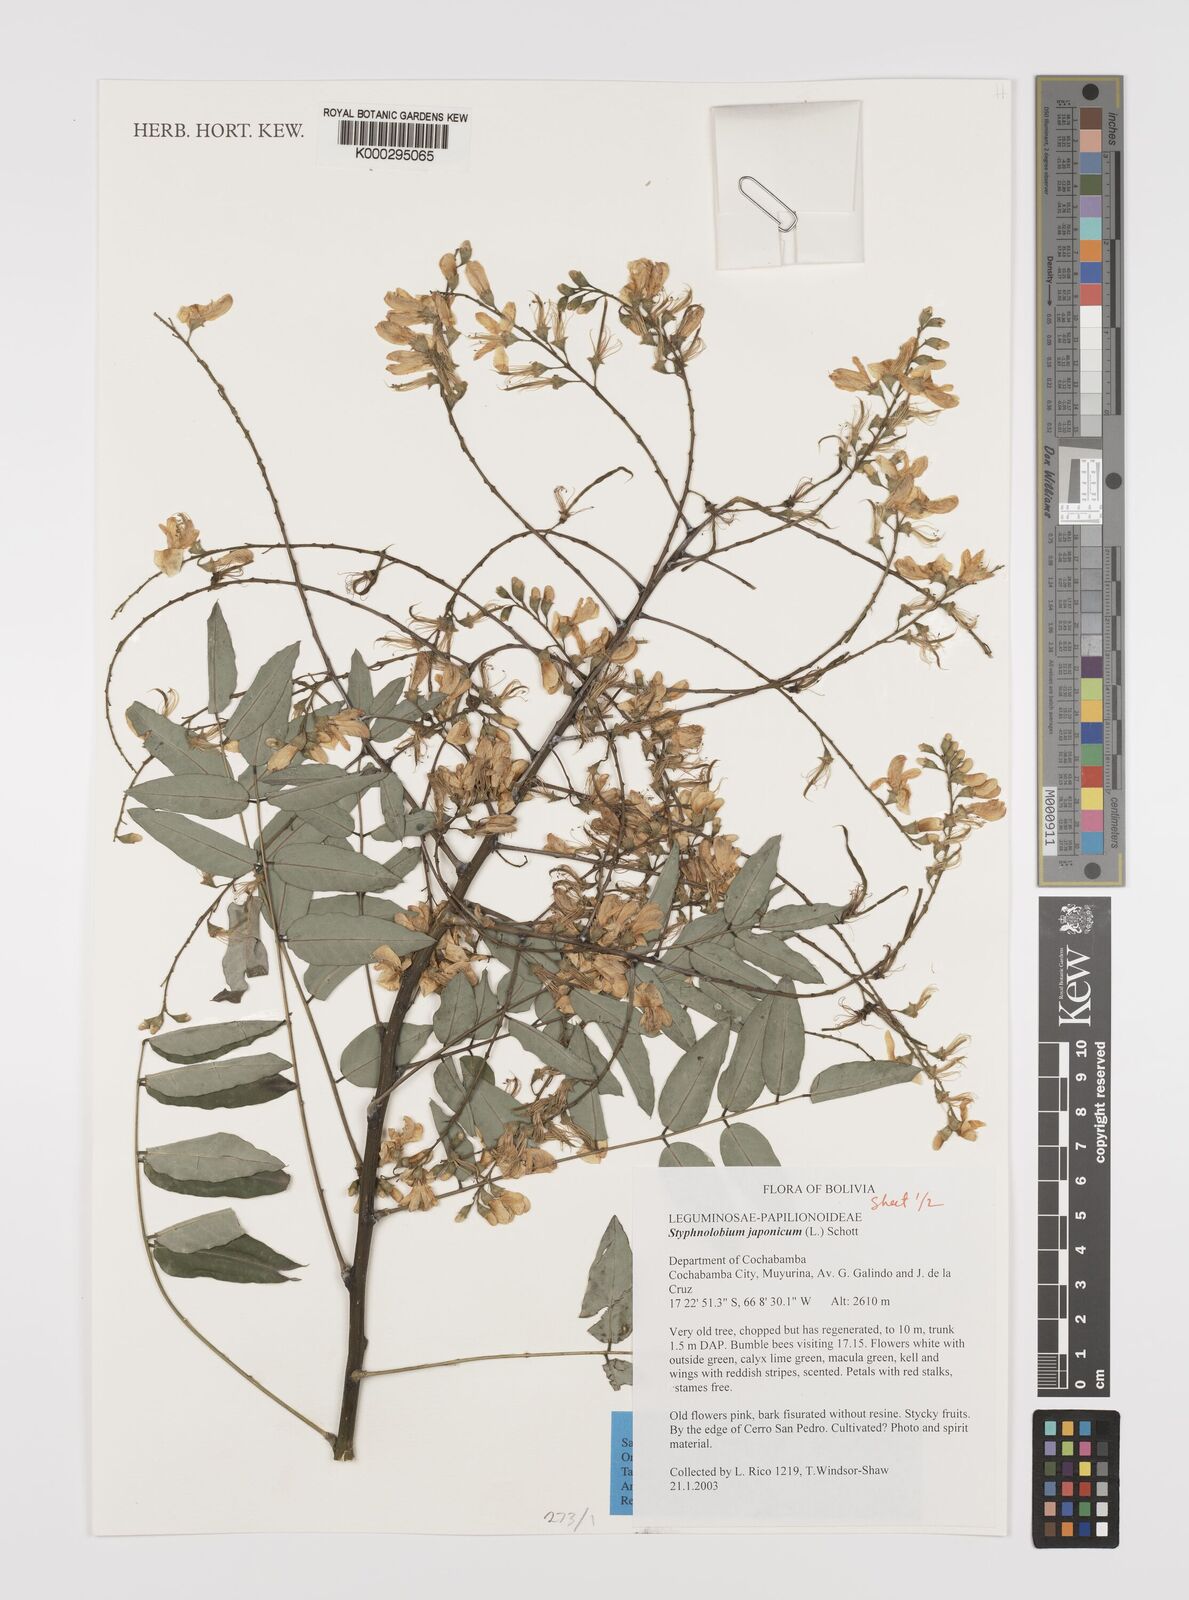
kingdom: Plantae
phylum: Tracheophyta
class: Magnoliopsida
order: Fabales
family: Fabaceae
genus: Styphnolobium
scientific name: Styphnolobium japonicum
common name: Chinese scholartree
